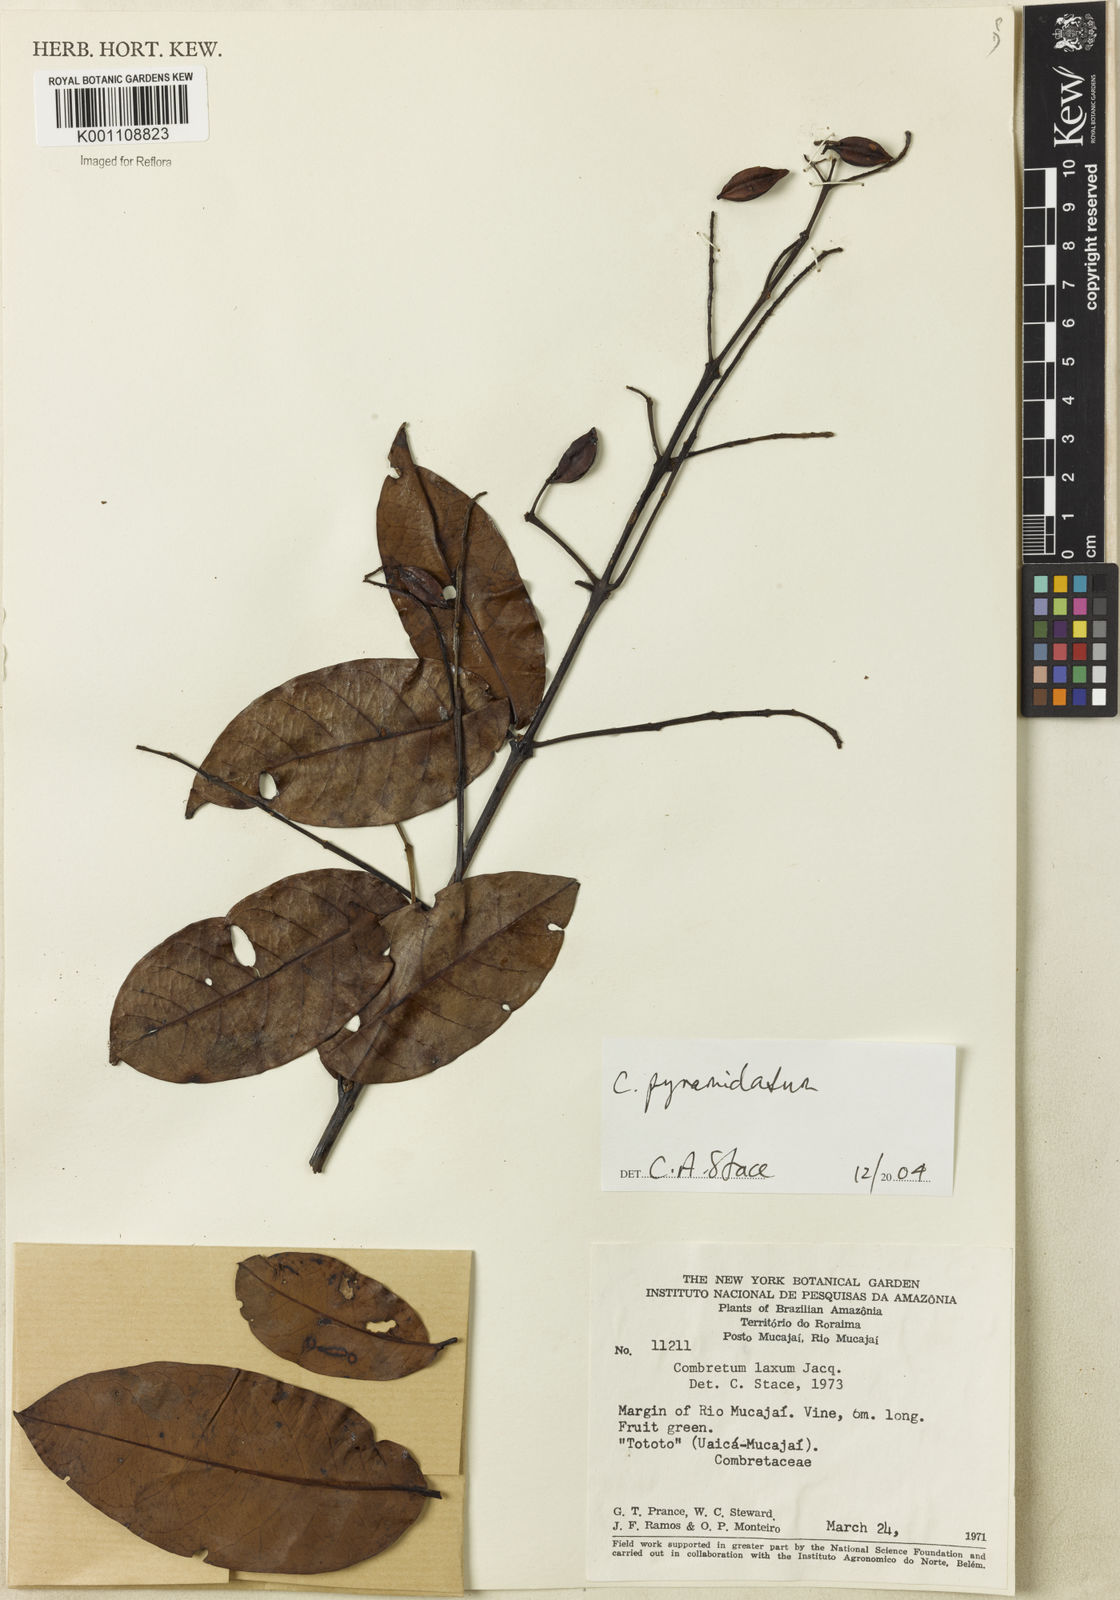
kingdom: Plantae
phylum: Tracheophyta
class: Magnoliopsida
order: Myrtales
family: Combretaceae
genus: Combretum
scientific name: Combretum pyramidatum
